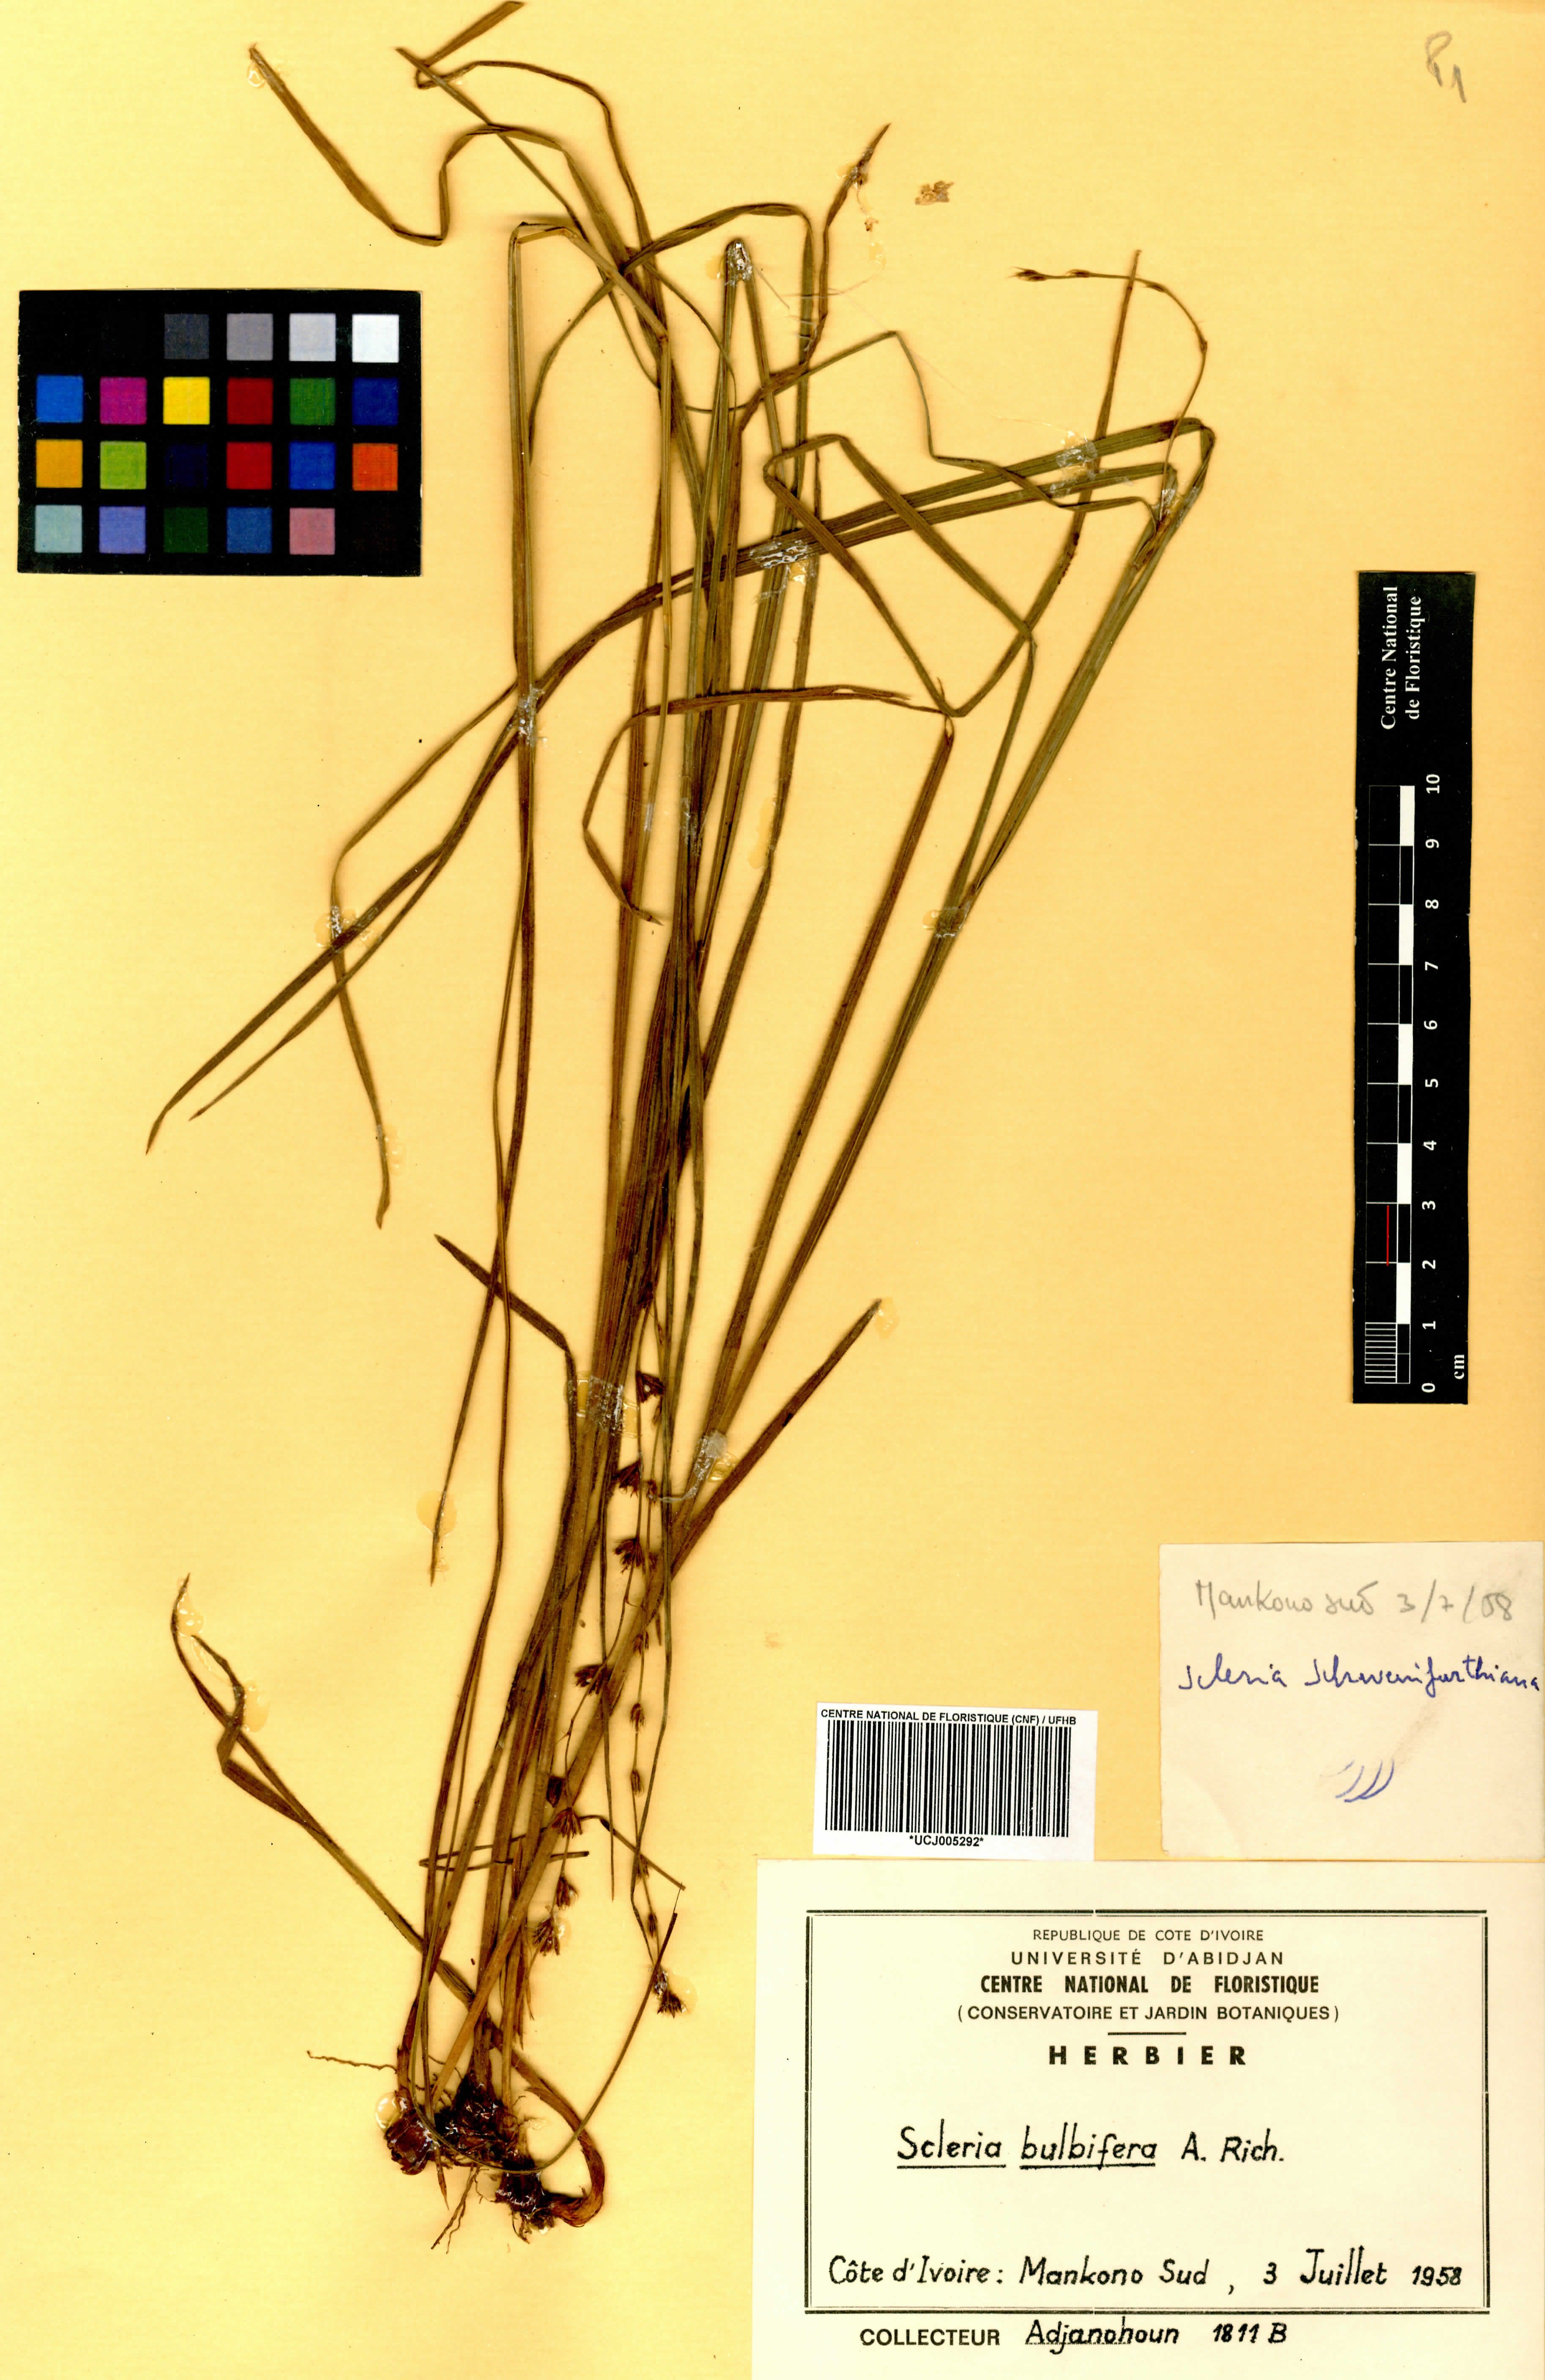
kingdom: Plantae
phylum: Tracheophyta
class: Liliopsida
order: Poales
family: Cyperaceae
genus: Scleria
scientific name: Scleria bulbifera
